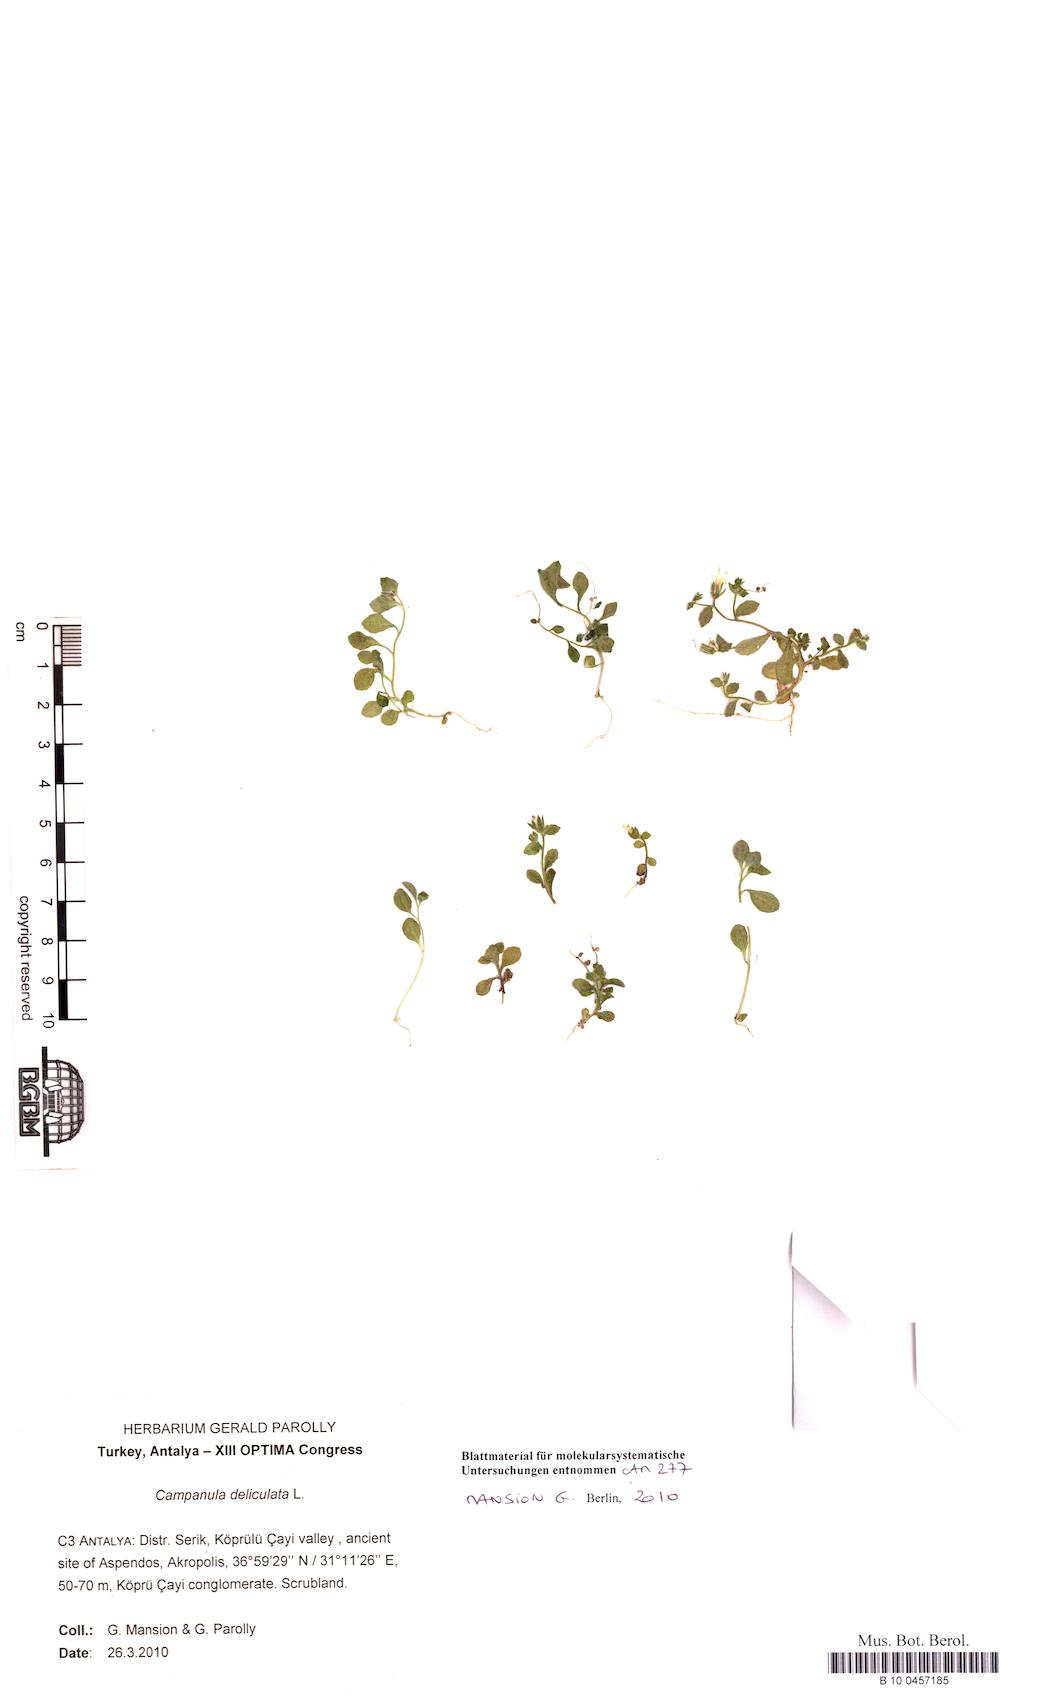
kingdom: Plantae
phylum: Tracheophyta
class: Magnoliopsida
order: Asterales
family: Campanulaceae
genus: Campanula
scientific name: Campanula delicatula
